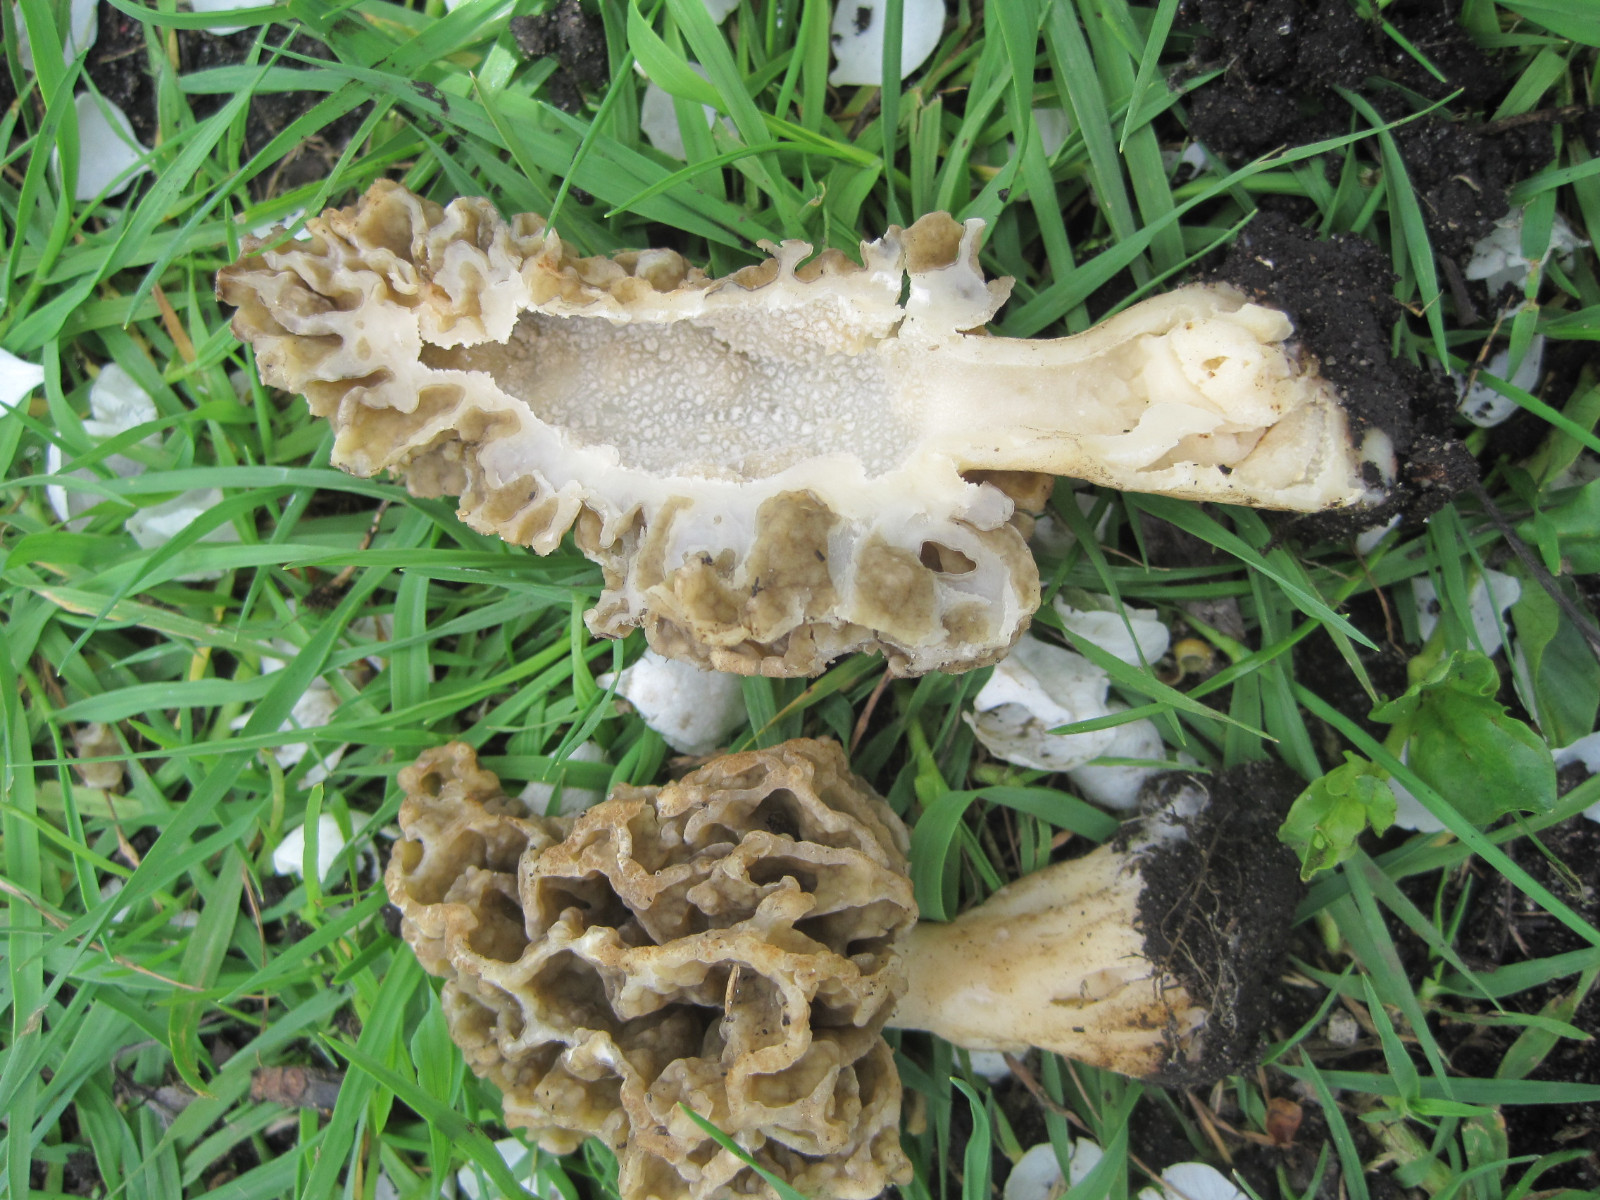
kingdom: Fungi
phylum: Ascomycota
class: Pezizomycetes
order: Pezizales
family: Morchellaceae
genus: Morchella
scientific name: Morchella esculenta
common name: spiselig morkel
